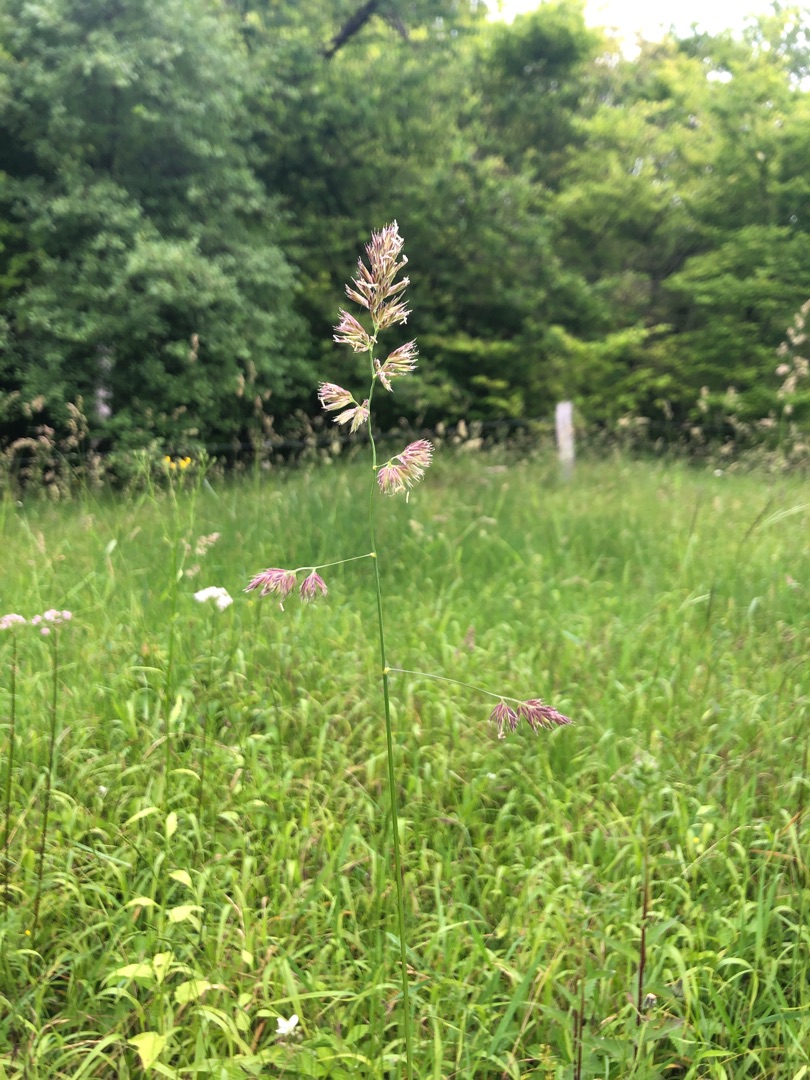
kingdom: Plantae
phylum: Tracheophyta
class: Liliopsida
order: Poales
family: Poaceae
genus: Dactylis
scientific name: Dactylis glomerata
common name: Almindelig hundegræs
